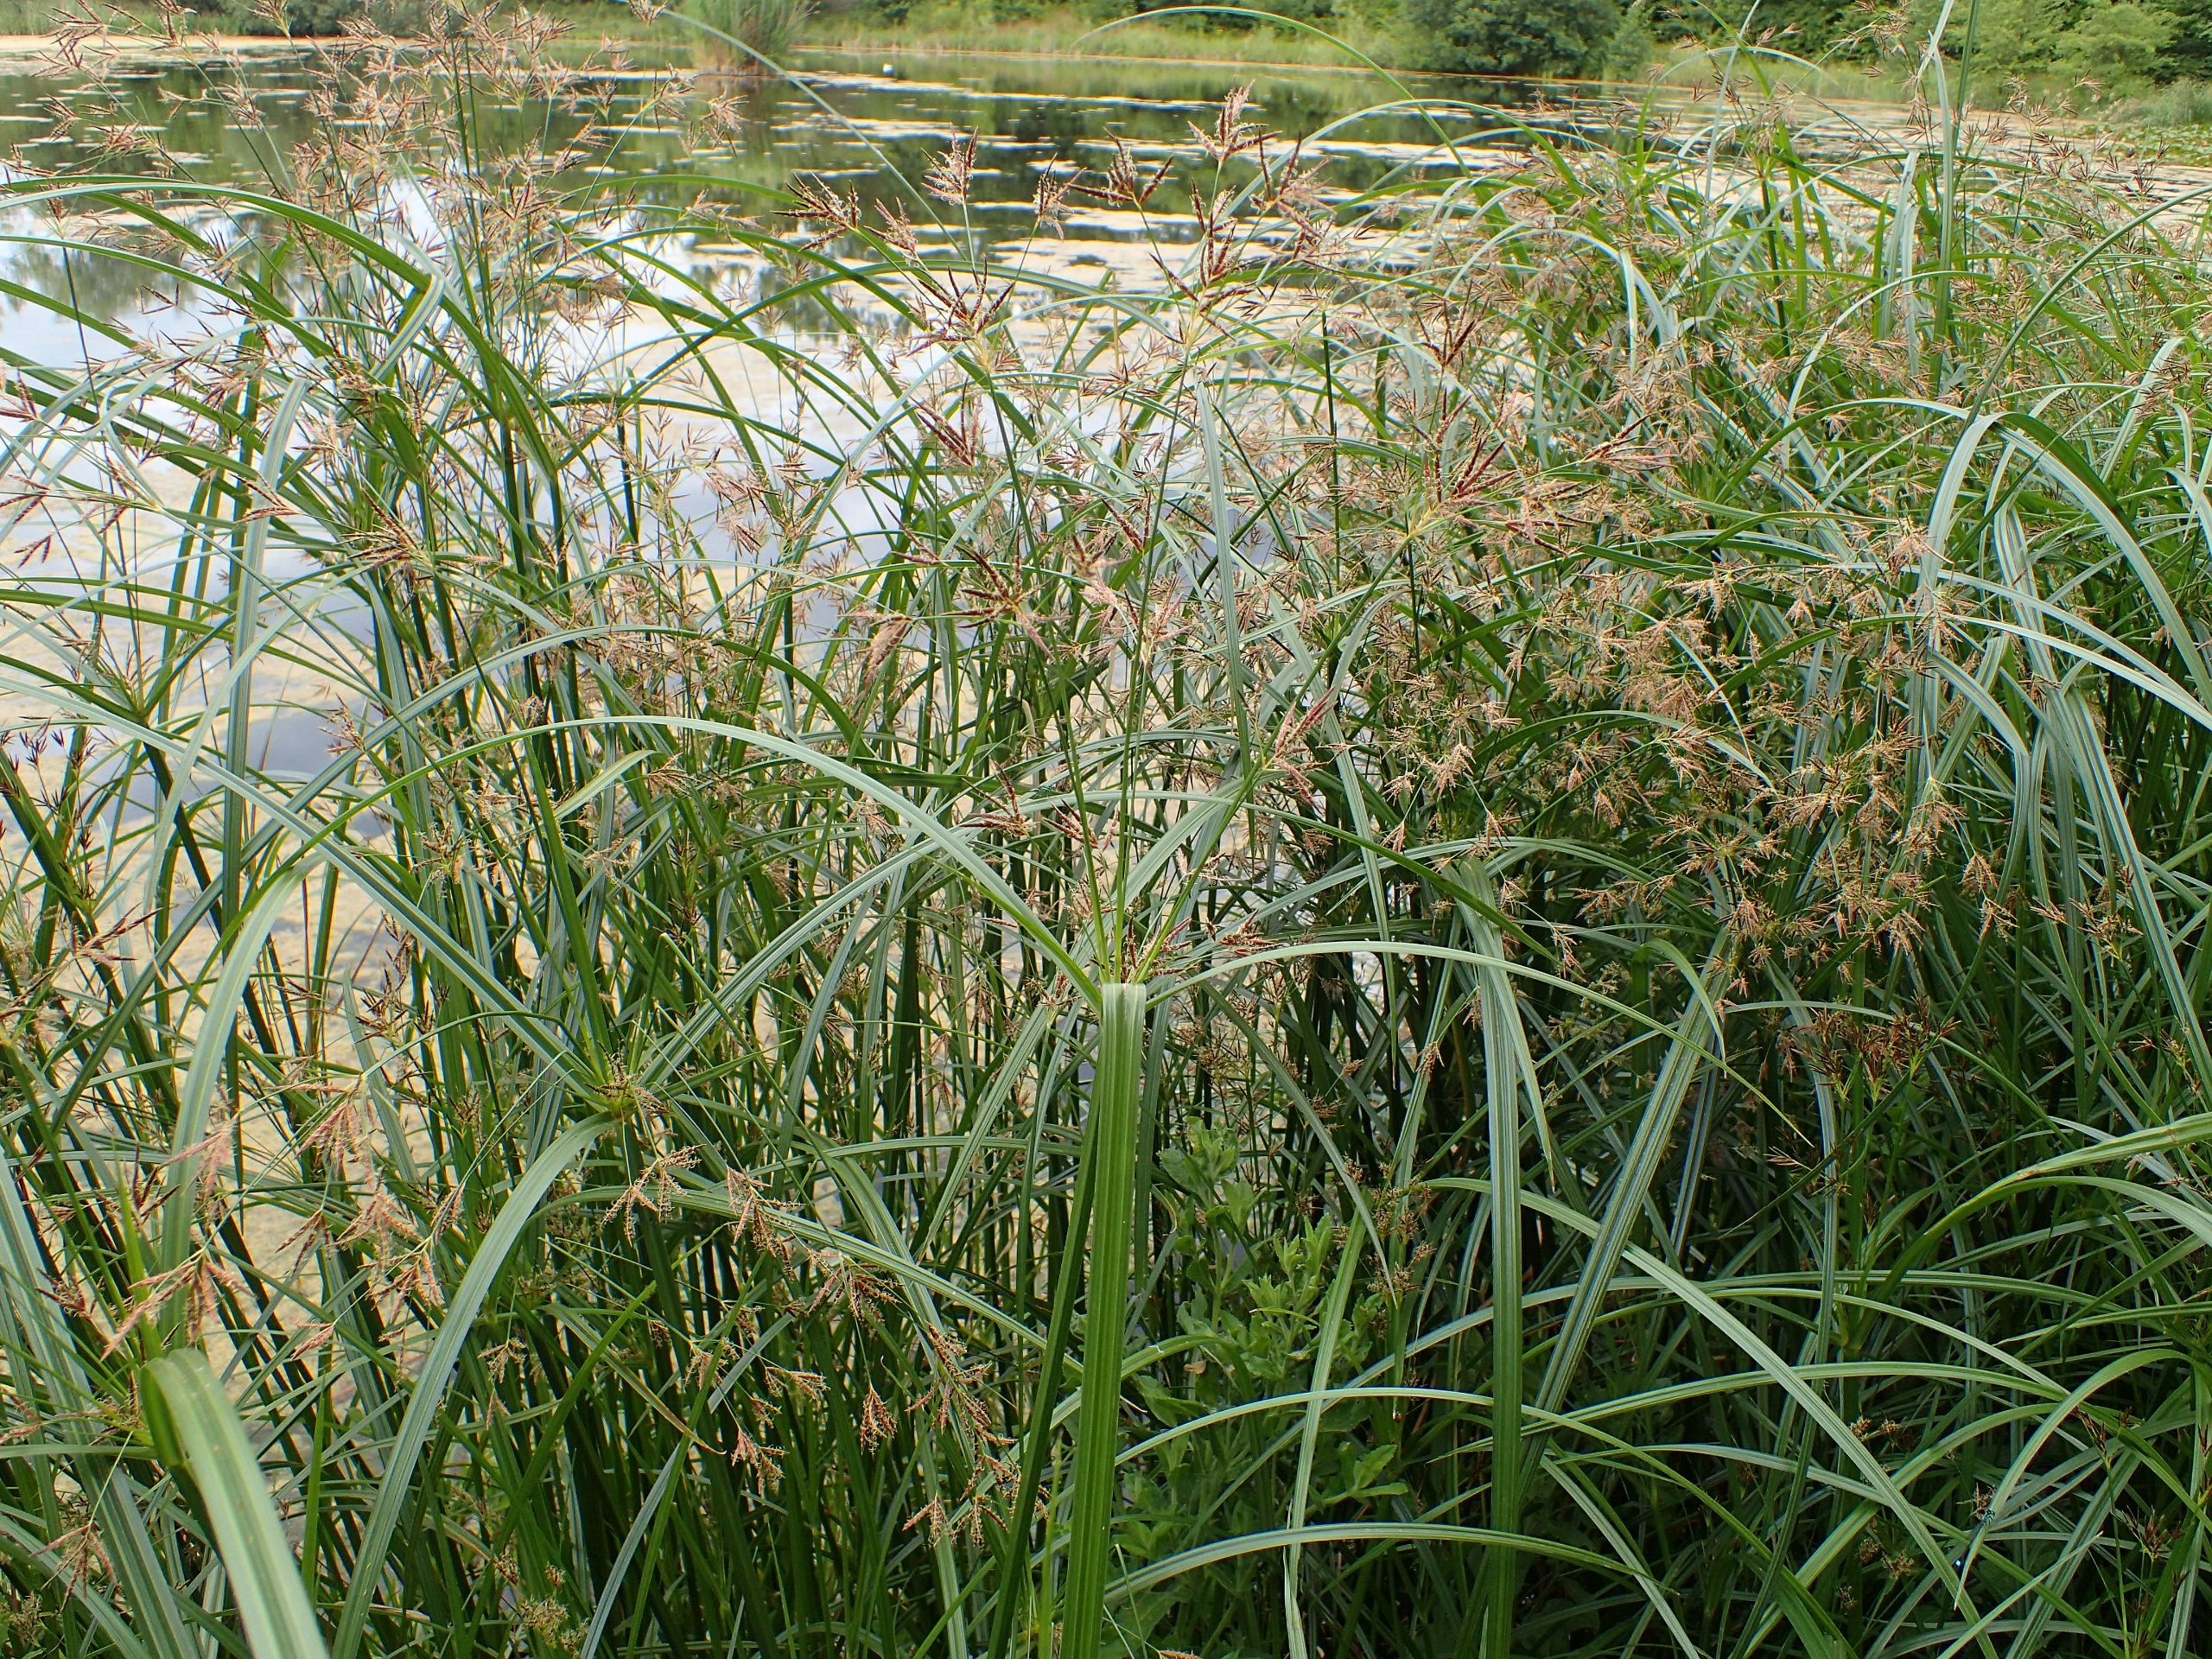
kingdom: Plantae
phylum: Tracheophyta
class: Liliopsida
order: Poales
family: Cyperaceae
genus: Cyperus
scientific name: Cyperus longus
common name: Smalbladet fladaks
